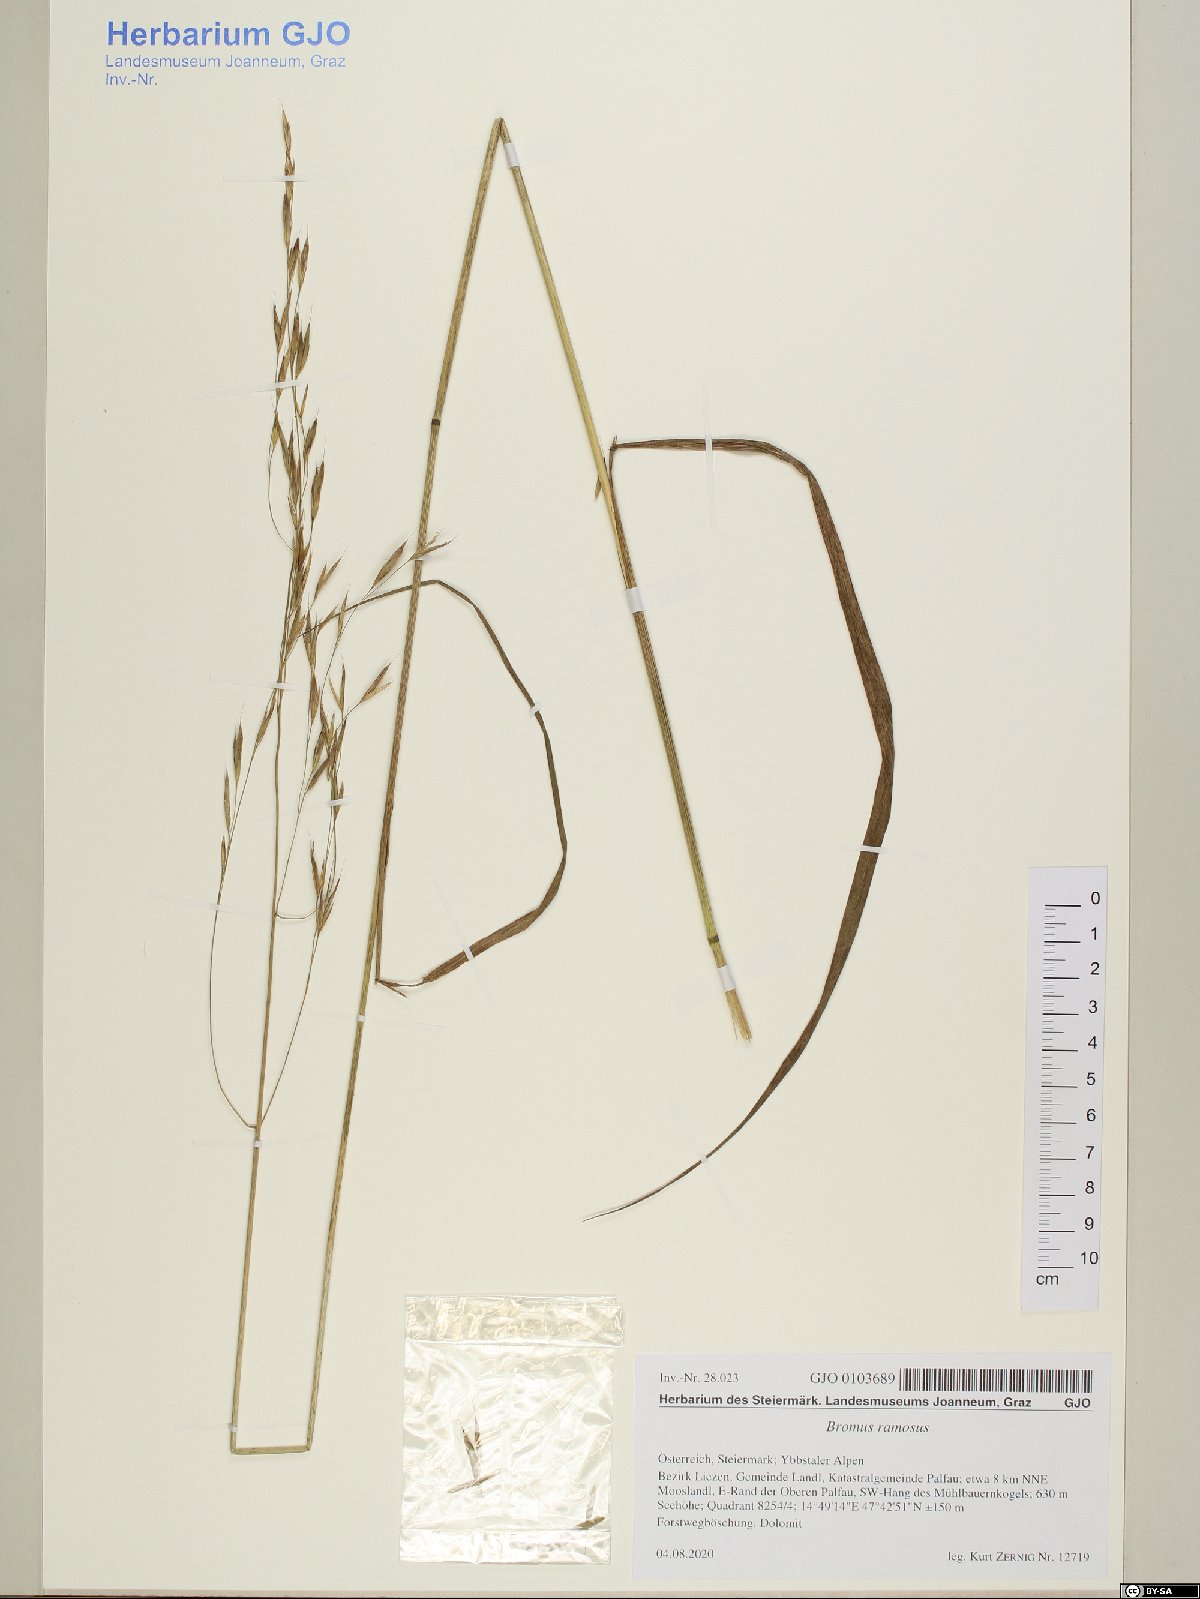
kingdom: Plantae
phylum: Tracheophyta
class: Liliopsida
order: Poales
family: Poaceae
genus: Bromus
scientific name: Bromus ramosus
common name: Hairy brome
